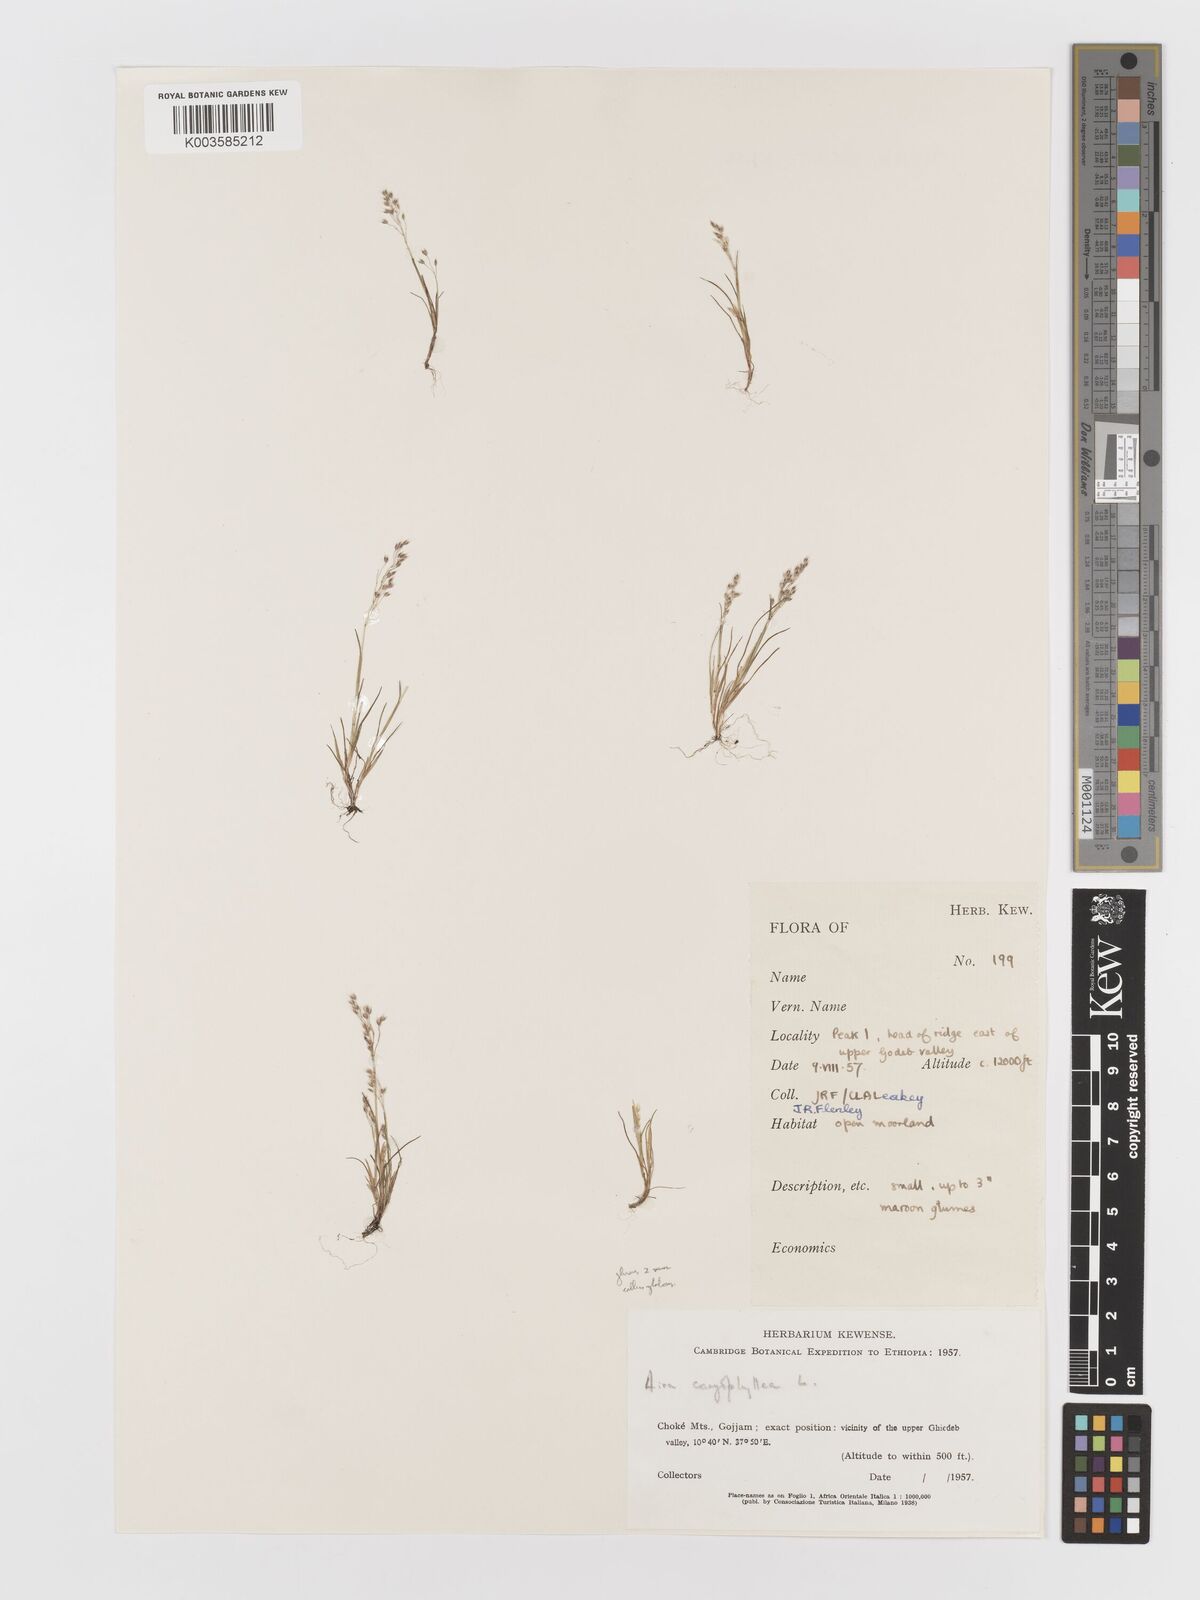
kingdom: Plantae
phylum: Tracheophyta
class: Liliopsida
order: Poales
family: Poaceae
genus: Aira
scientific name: Aira caryophyllea
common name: Silver hairgrass
